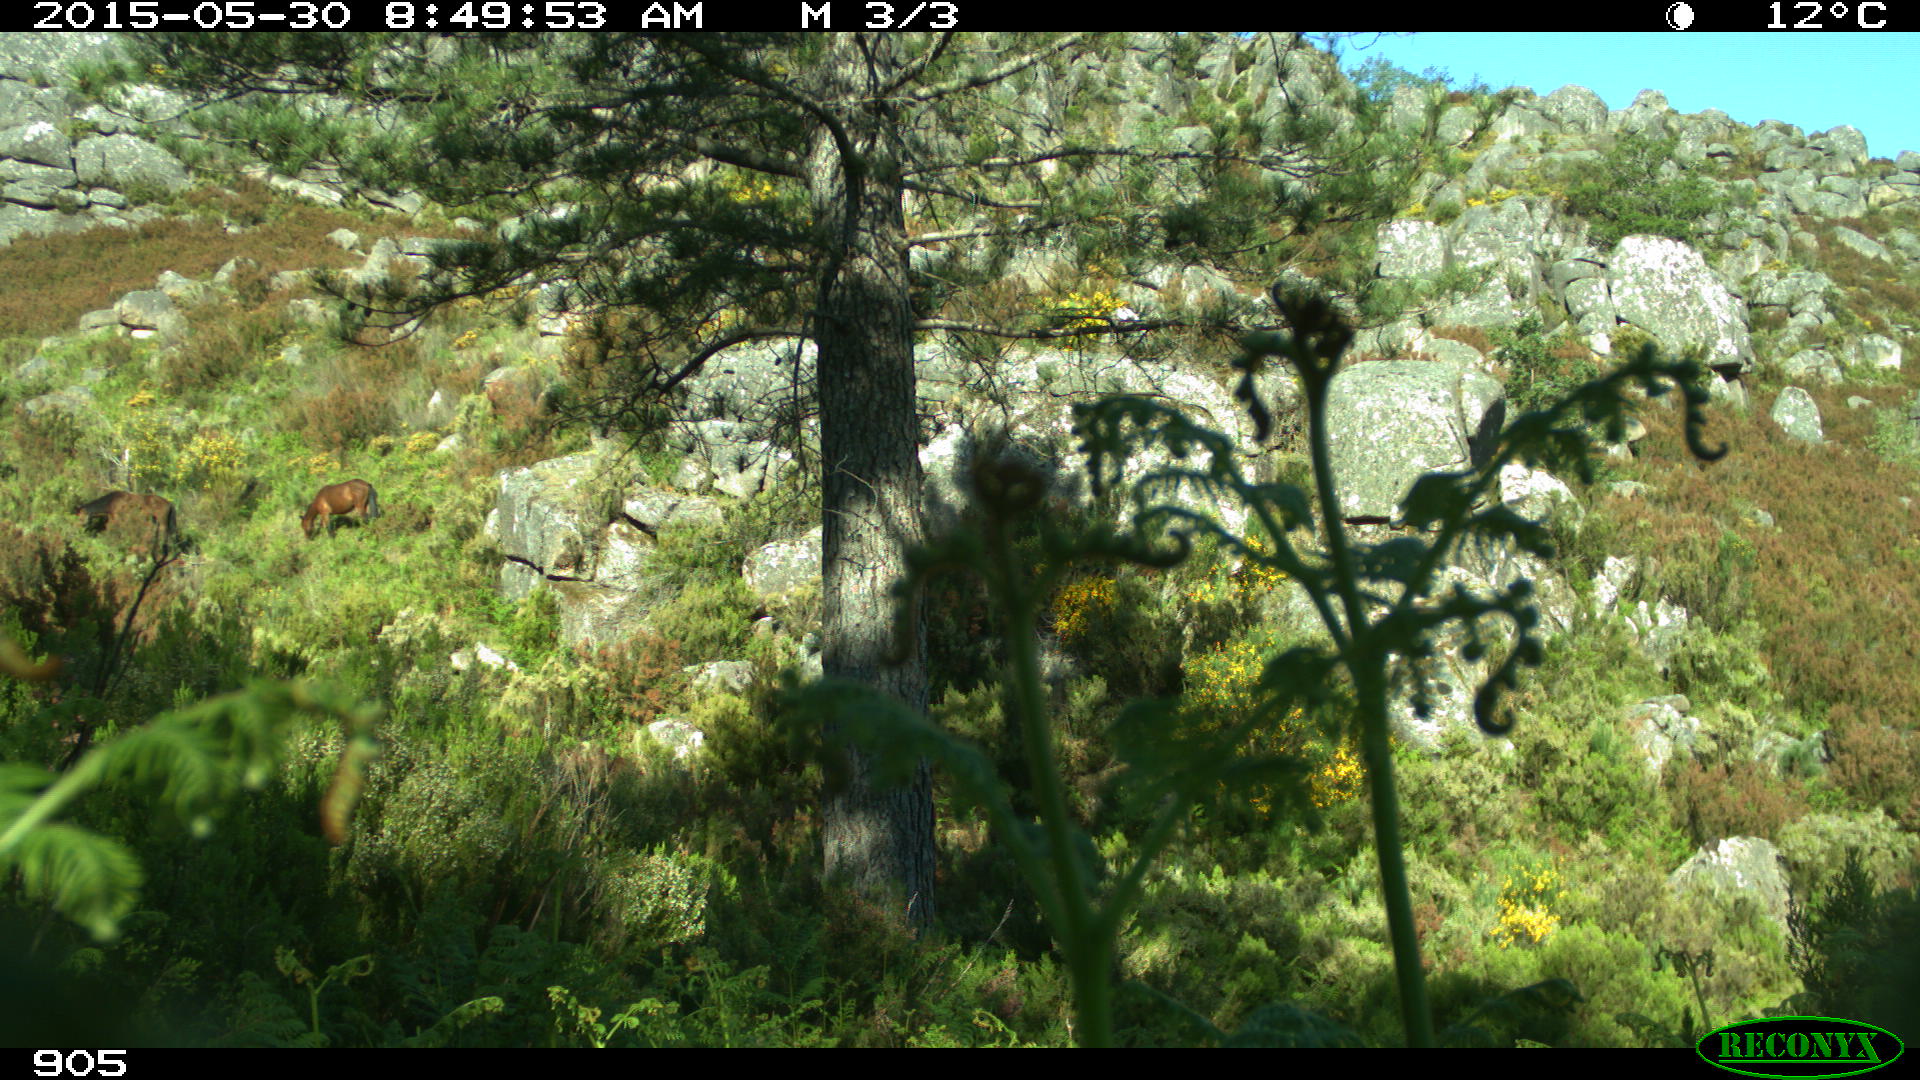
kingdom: Animalia
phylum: Chordata
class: Mammalia
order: Perissodactyla
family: Equidae
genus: Equus
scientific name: Equus caballus
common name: Horse
